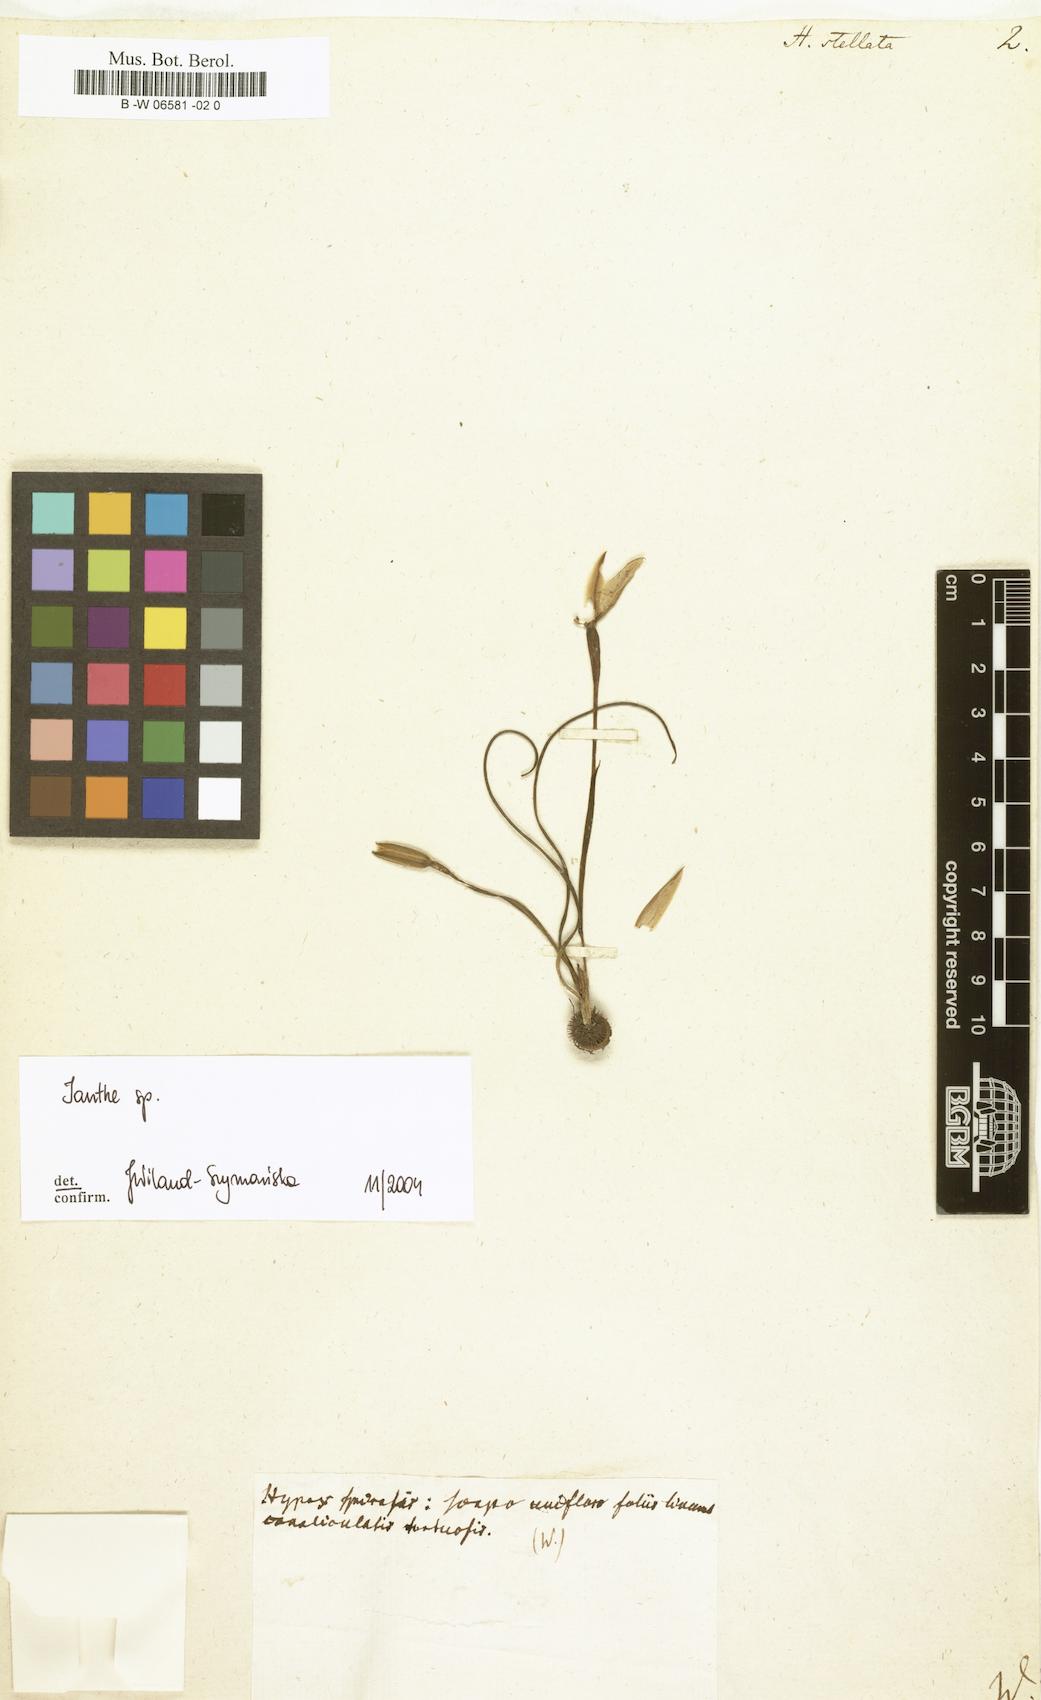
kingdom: Plantae
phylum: Tracheophyta
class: Liliopsida
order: Asparagales
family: Hypoxidaceae
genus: Pauridia
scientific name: Pauridia capensis
